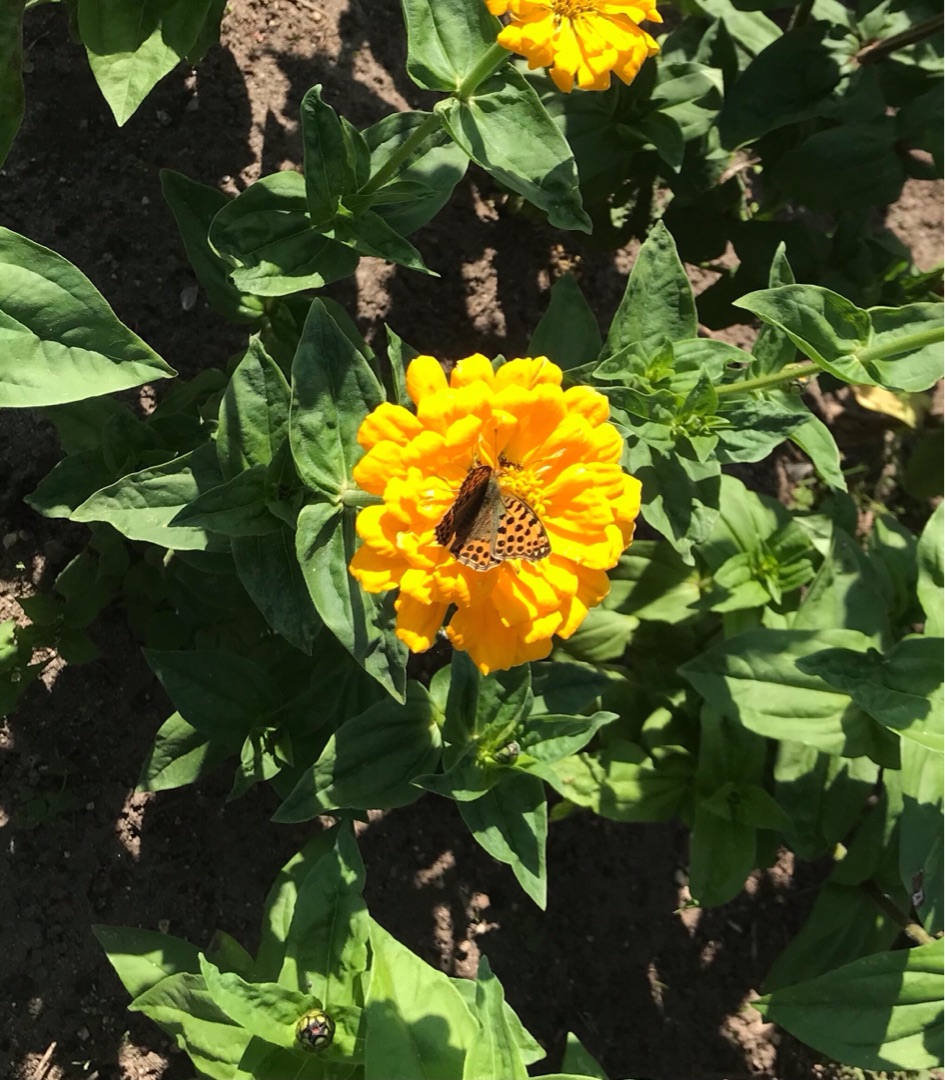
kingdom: Animalia
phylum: Arthropoda
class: Insecta
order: Lepidoptera
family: Nymphalidae
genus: Issoria
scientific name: Issoria lathonia
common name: Storplettet perlemorsommerfugl
